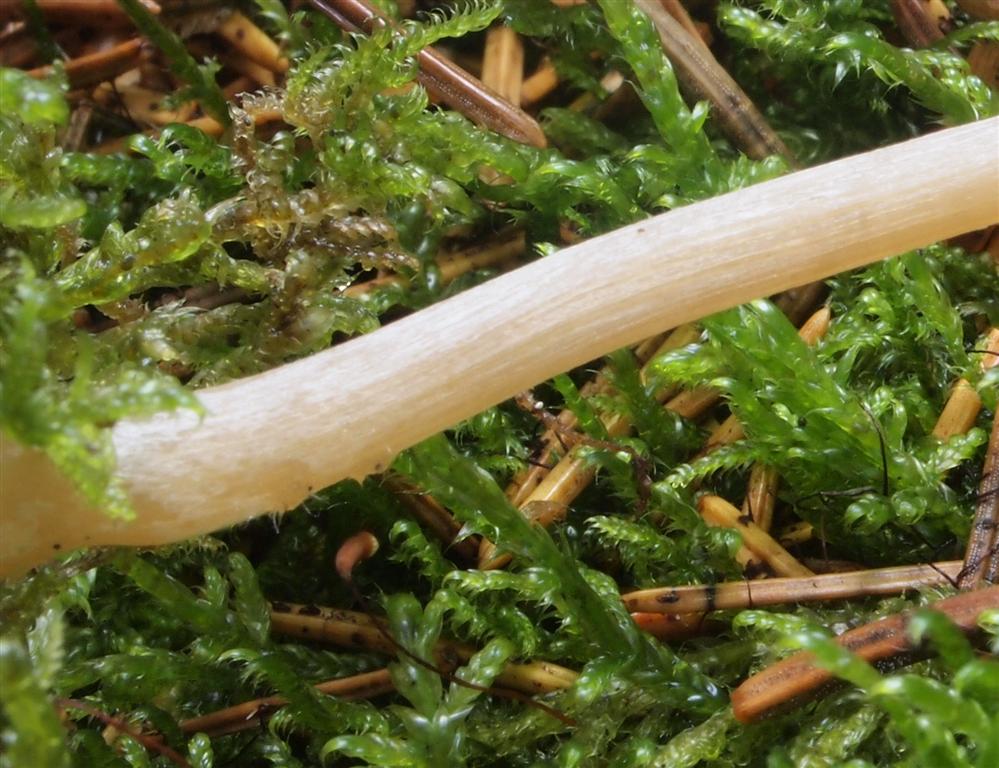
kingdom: Fungi
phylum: Basidiomycota
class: Agaricomycetes
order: Agaricales
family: Entolomataceae
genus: Entoloma
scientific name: Entoloma cetratum
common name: voks-rødblad
